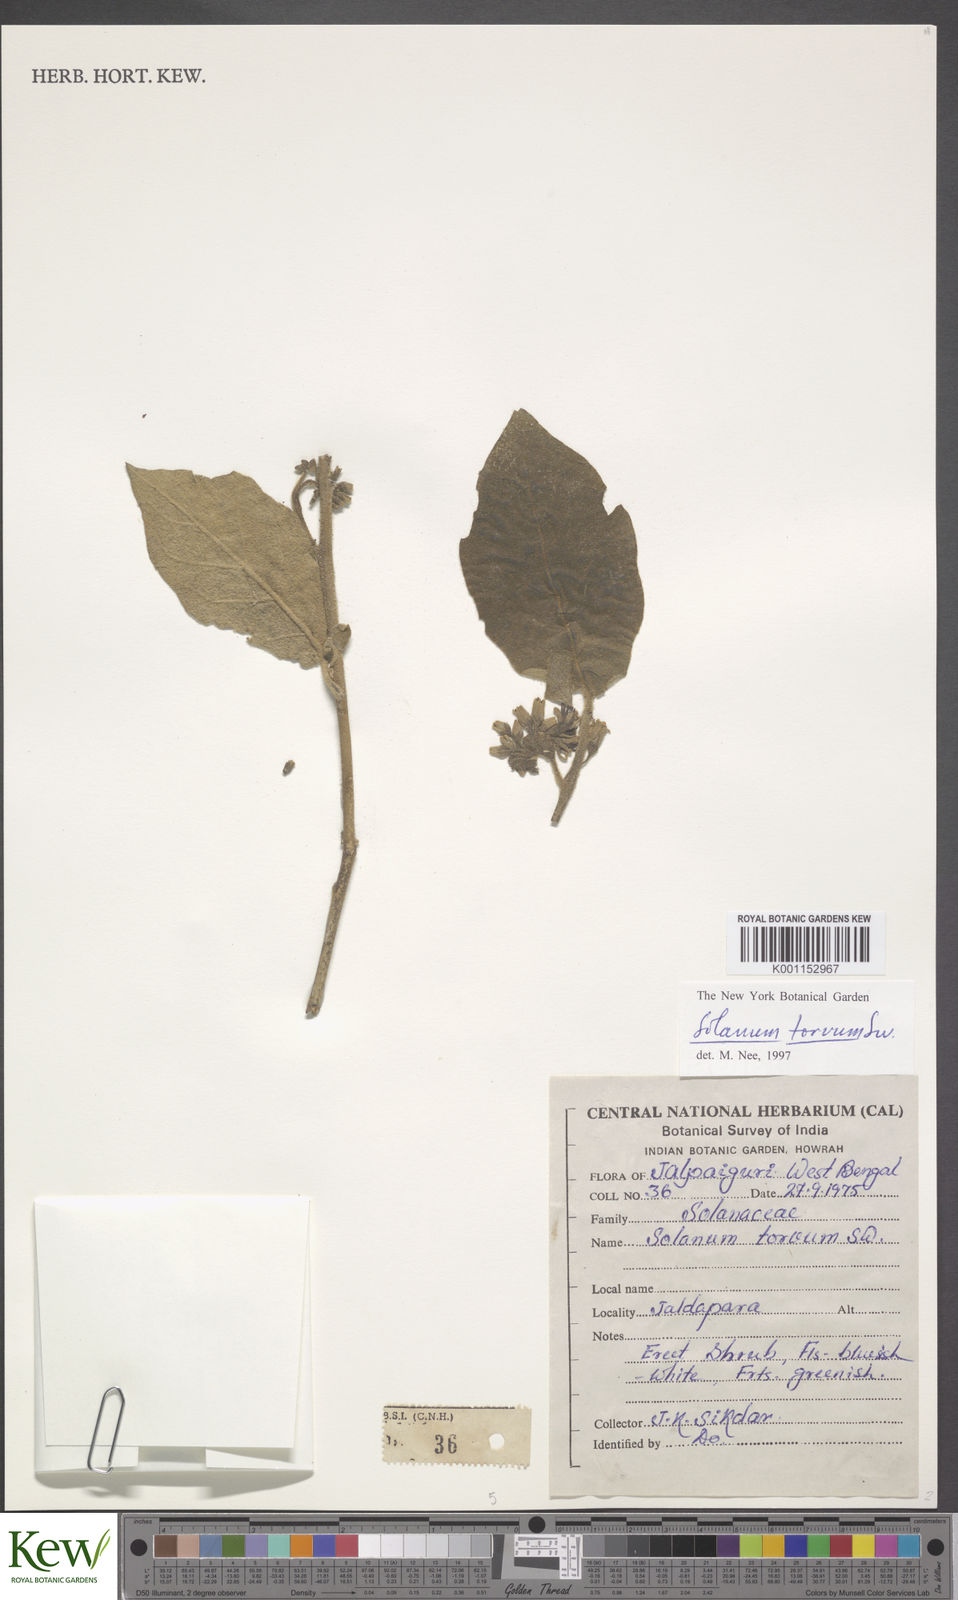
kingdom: Plantae
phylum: Tracheophyta
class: Magnoliopsida
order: Solanales
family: Solanaceae
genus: Solanum
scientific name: Solanum torvum
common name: Turkey berry
